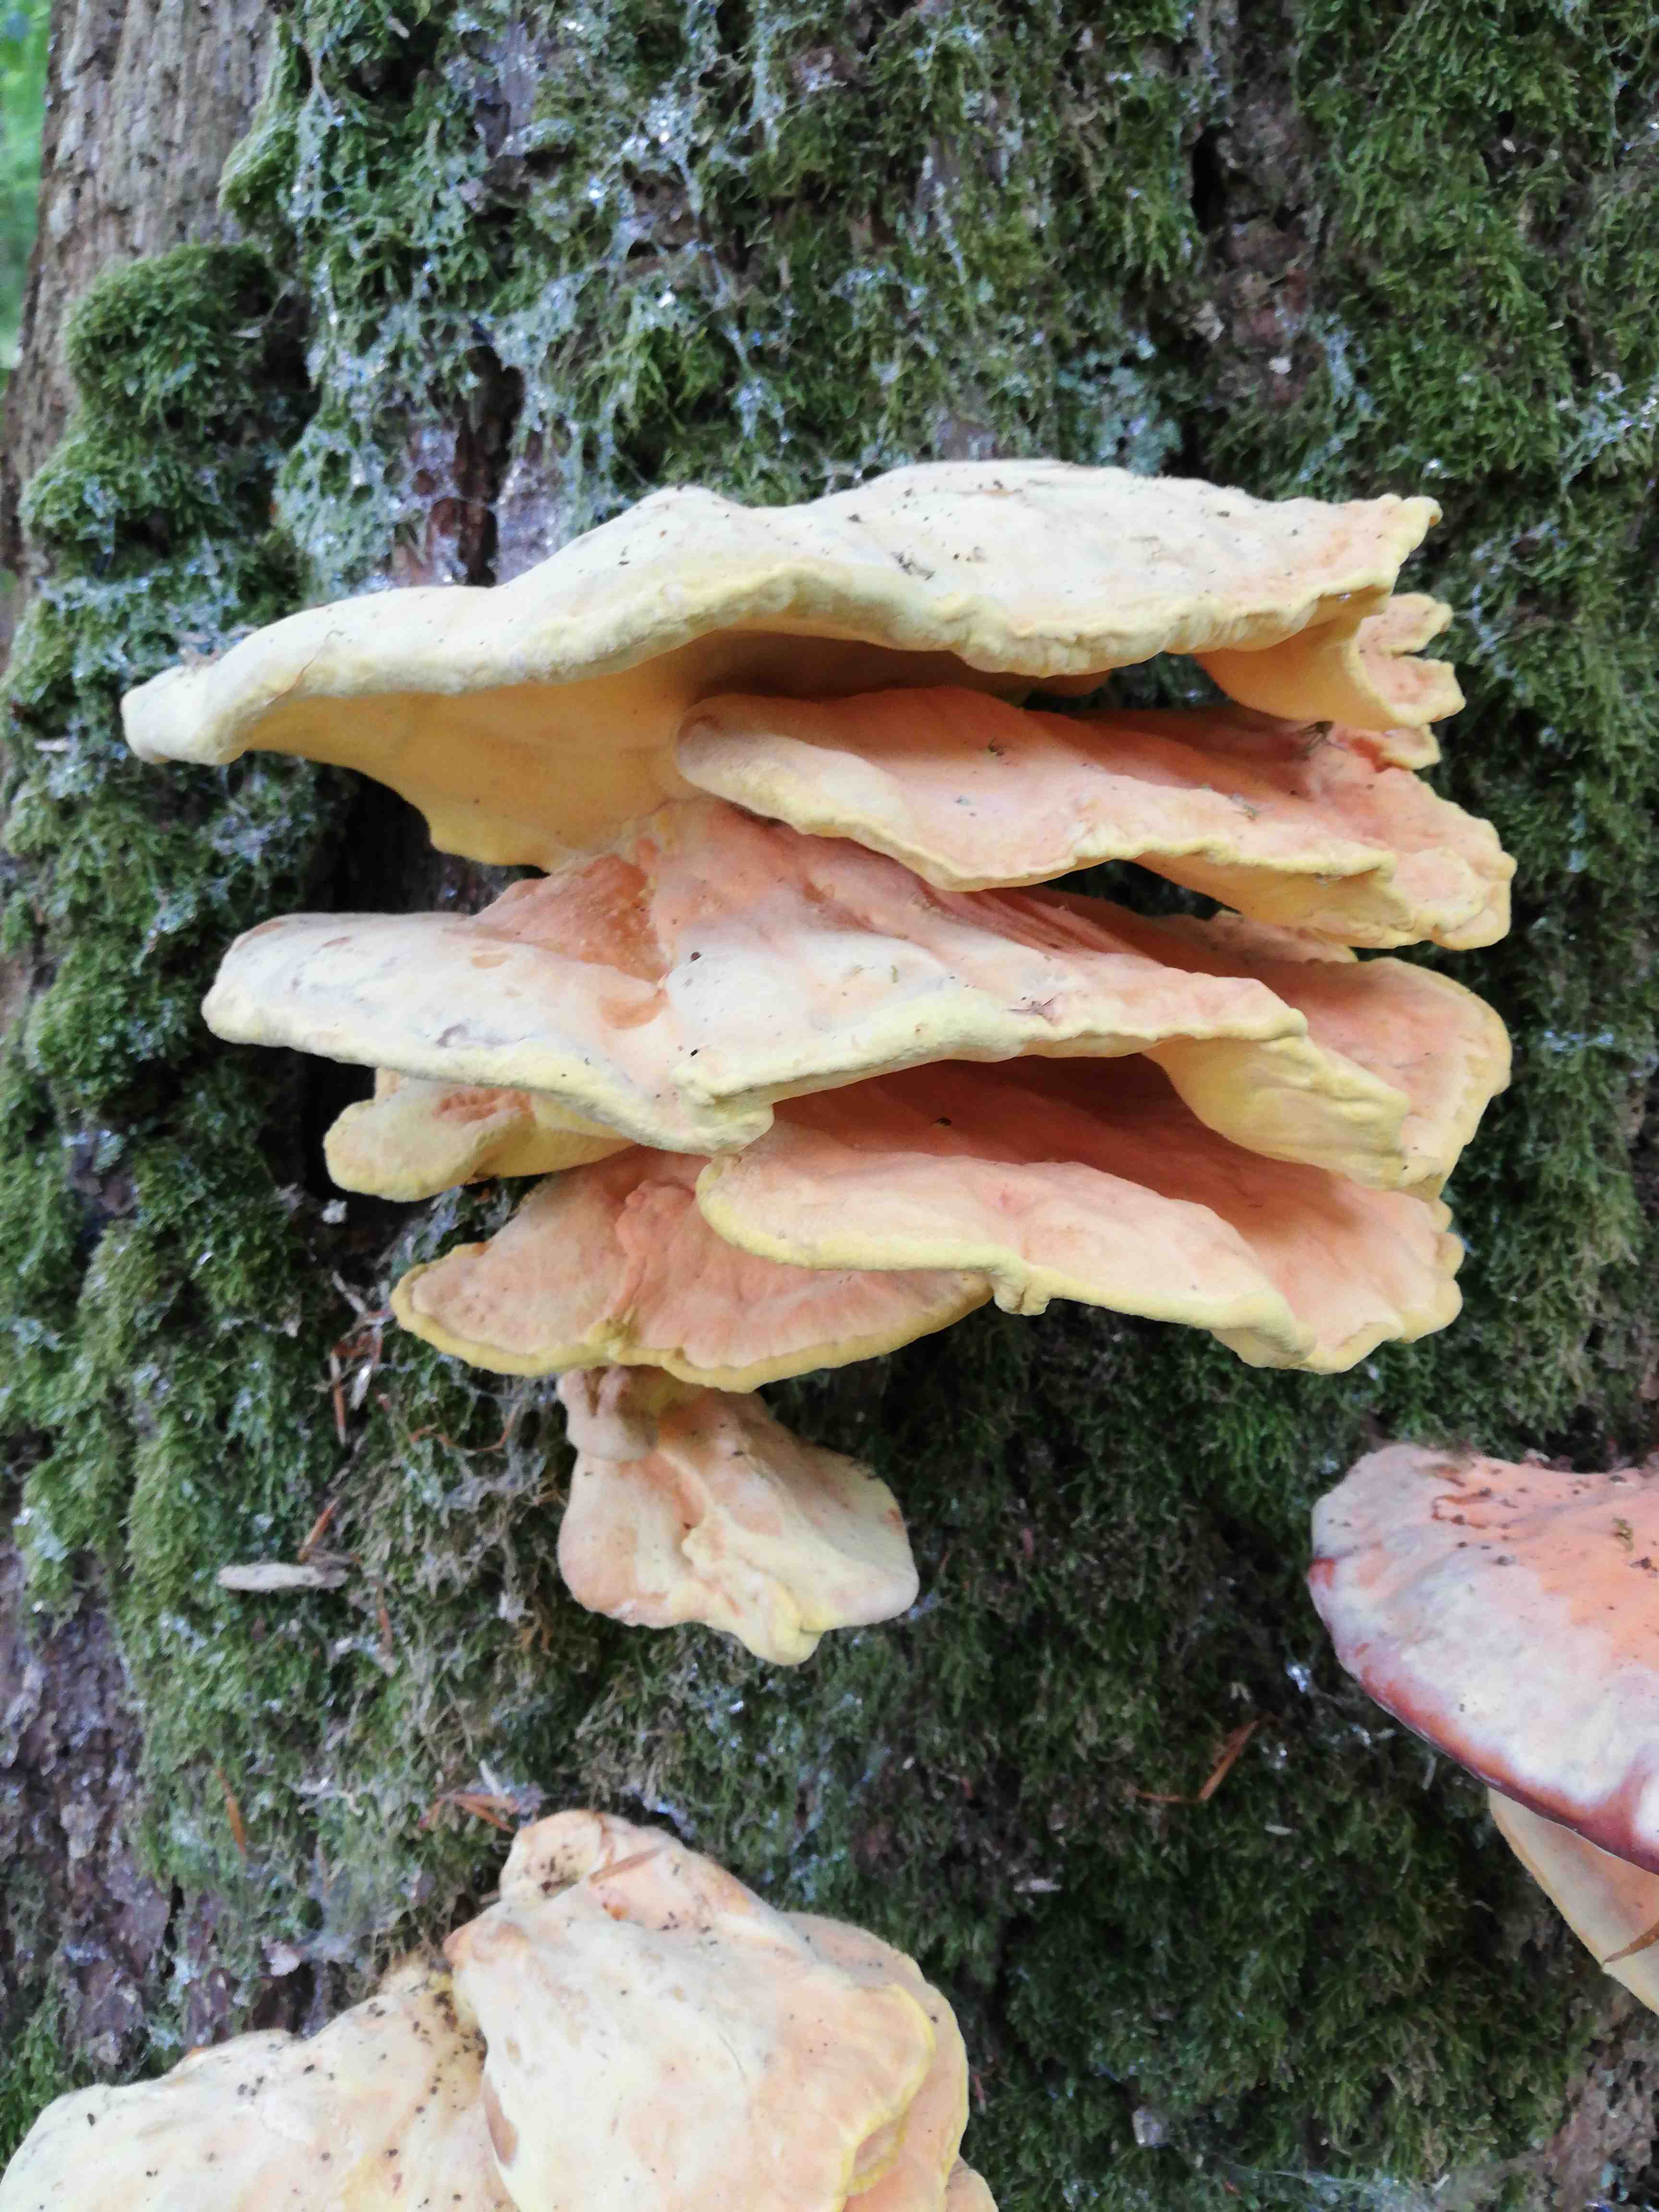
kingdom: Fungi
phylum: Basidiomycota
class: Agaricomycetes
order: Polyporales
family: Laetiporaceae
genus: Laetiporus
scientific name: Laetiporus sulphureus
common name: svovlporesvamp
